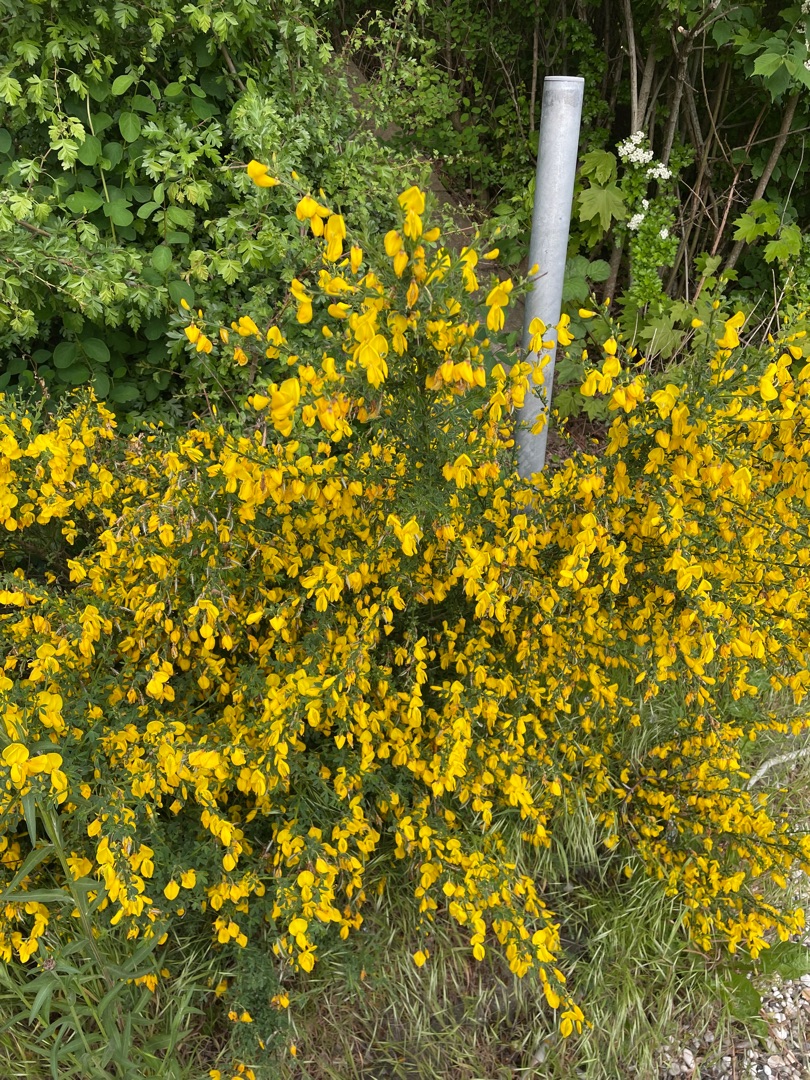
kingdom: Plantae
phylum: Tracheophyta
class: Magnoliopsida
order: Fabales
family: Fabaceae
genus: Cytisus
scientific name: Cytisus scoparius
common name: Almindelig gyvel
